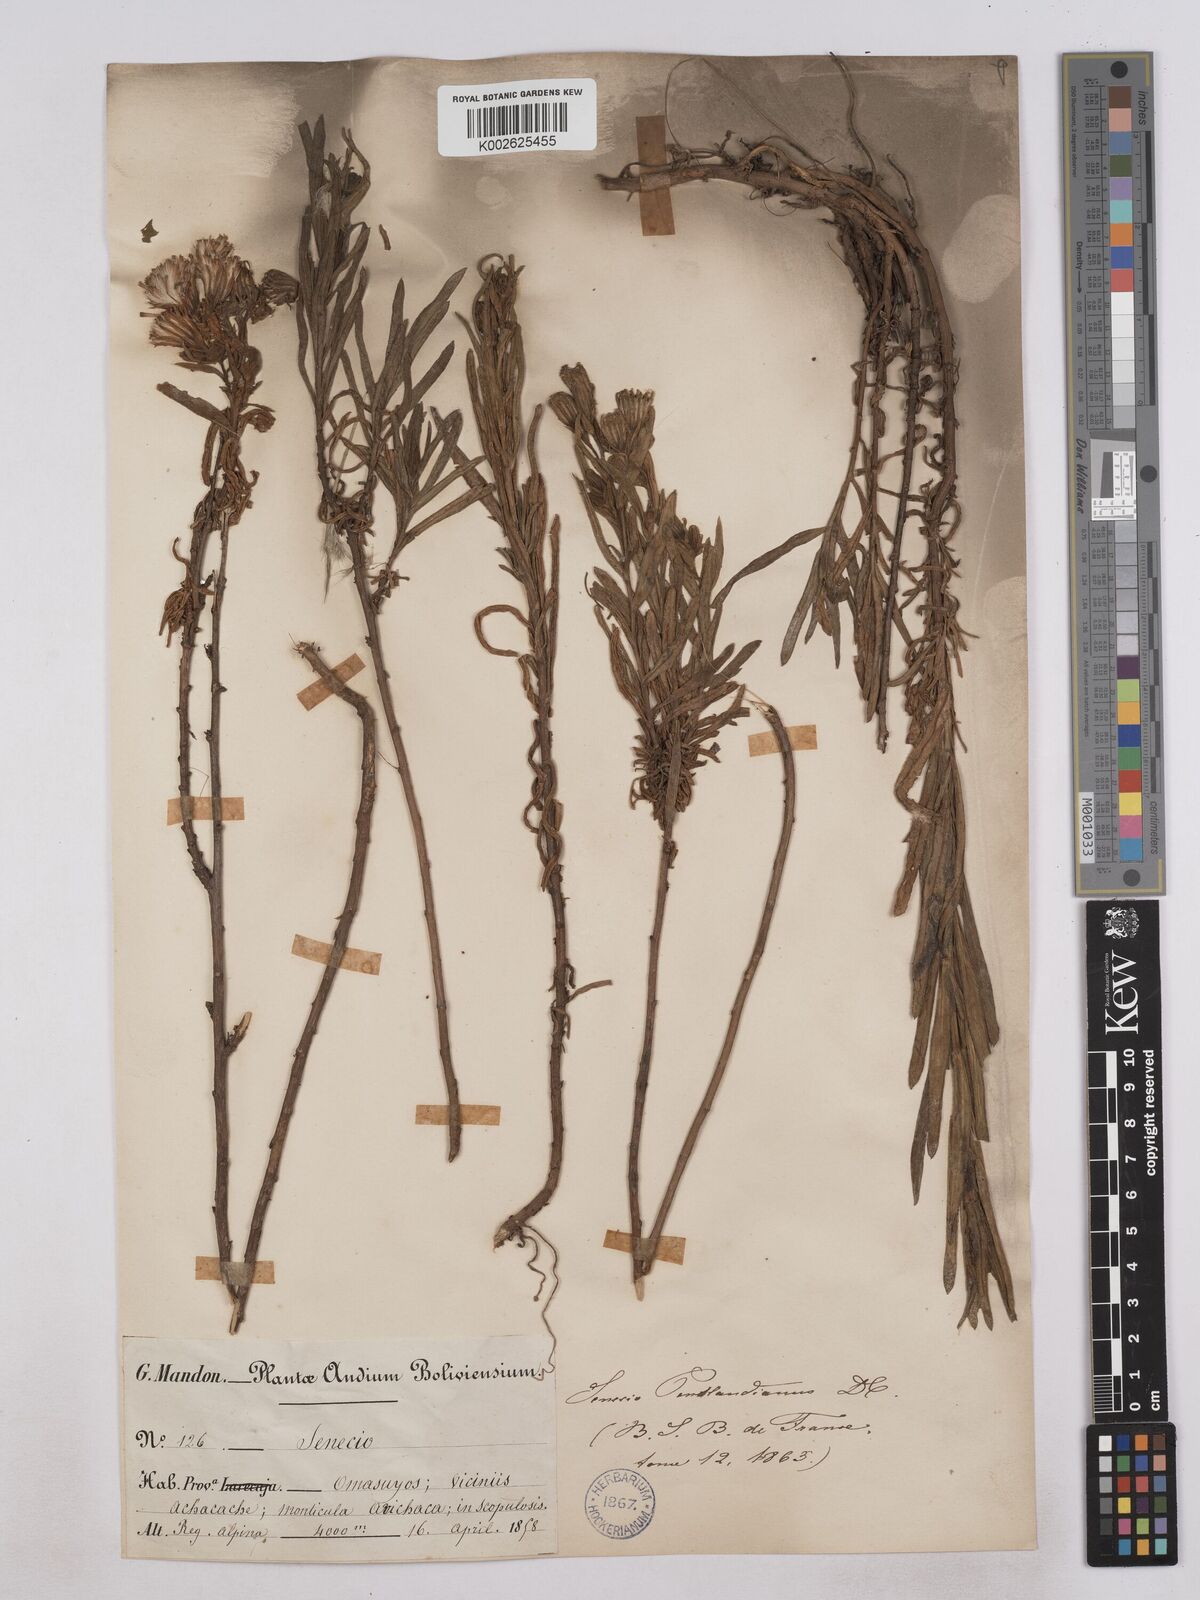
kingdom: Plantae
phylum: Tracheophyta
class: Magnoliopsida
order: Asterales
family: Asteraceae
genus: Senecio
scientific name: Senecio pentlandianus
